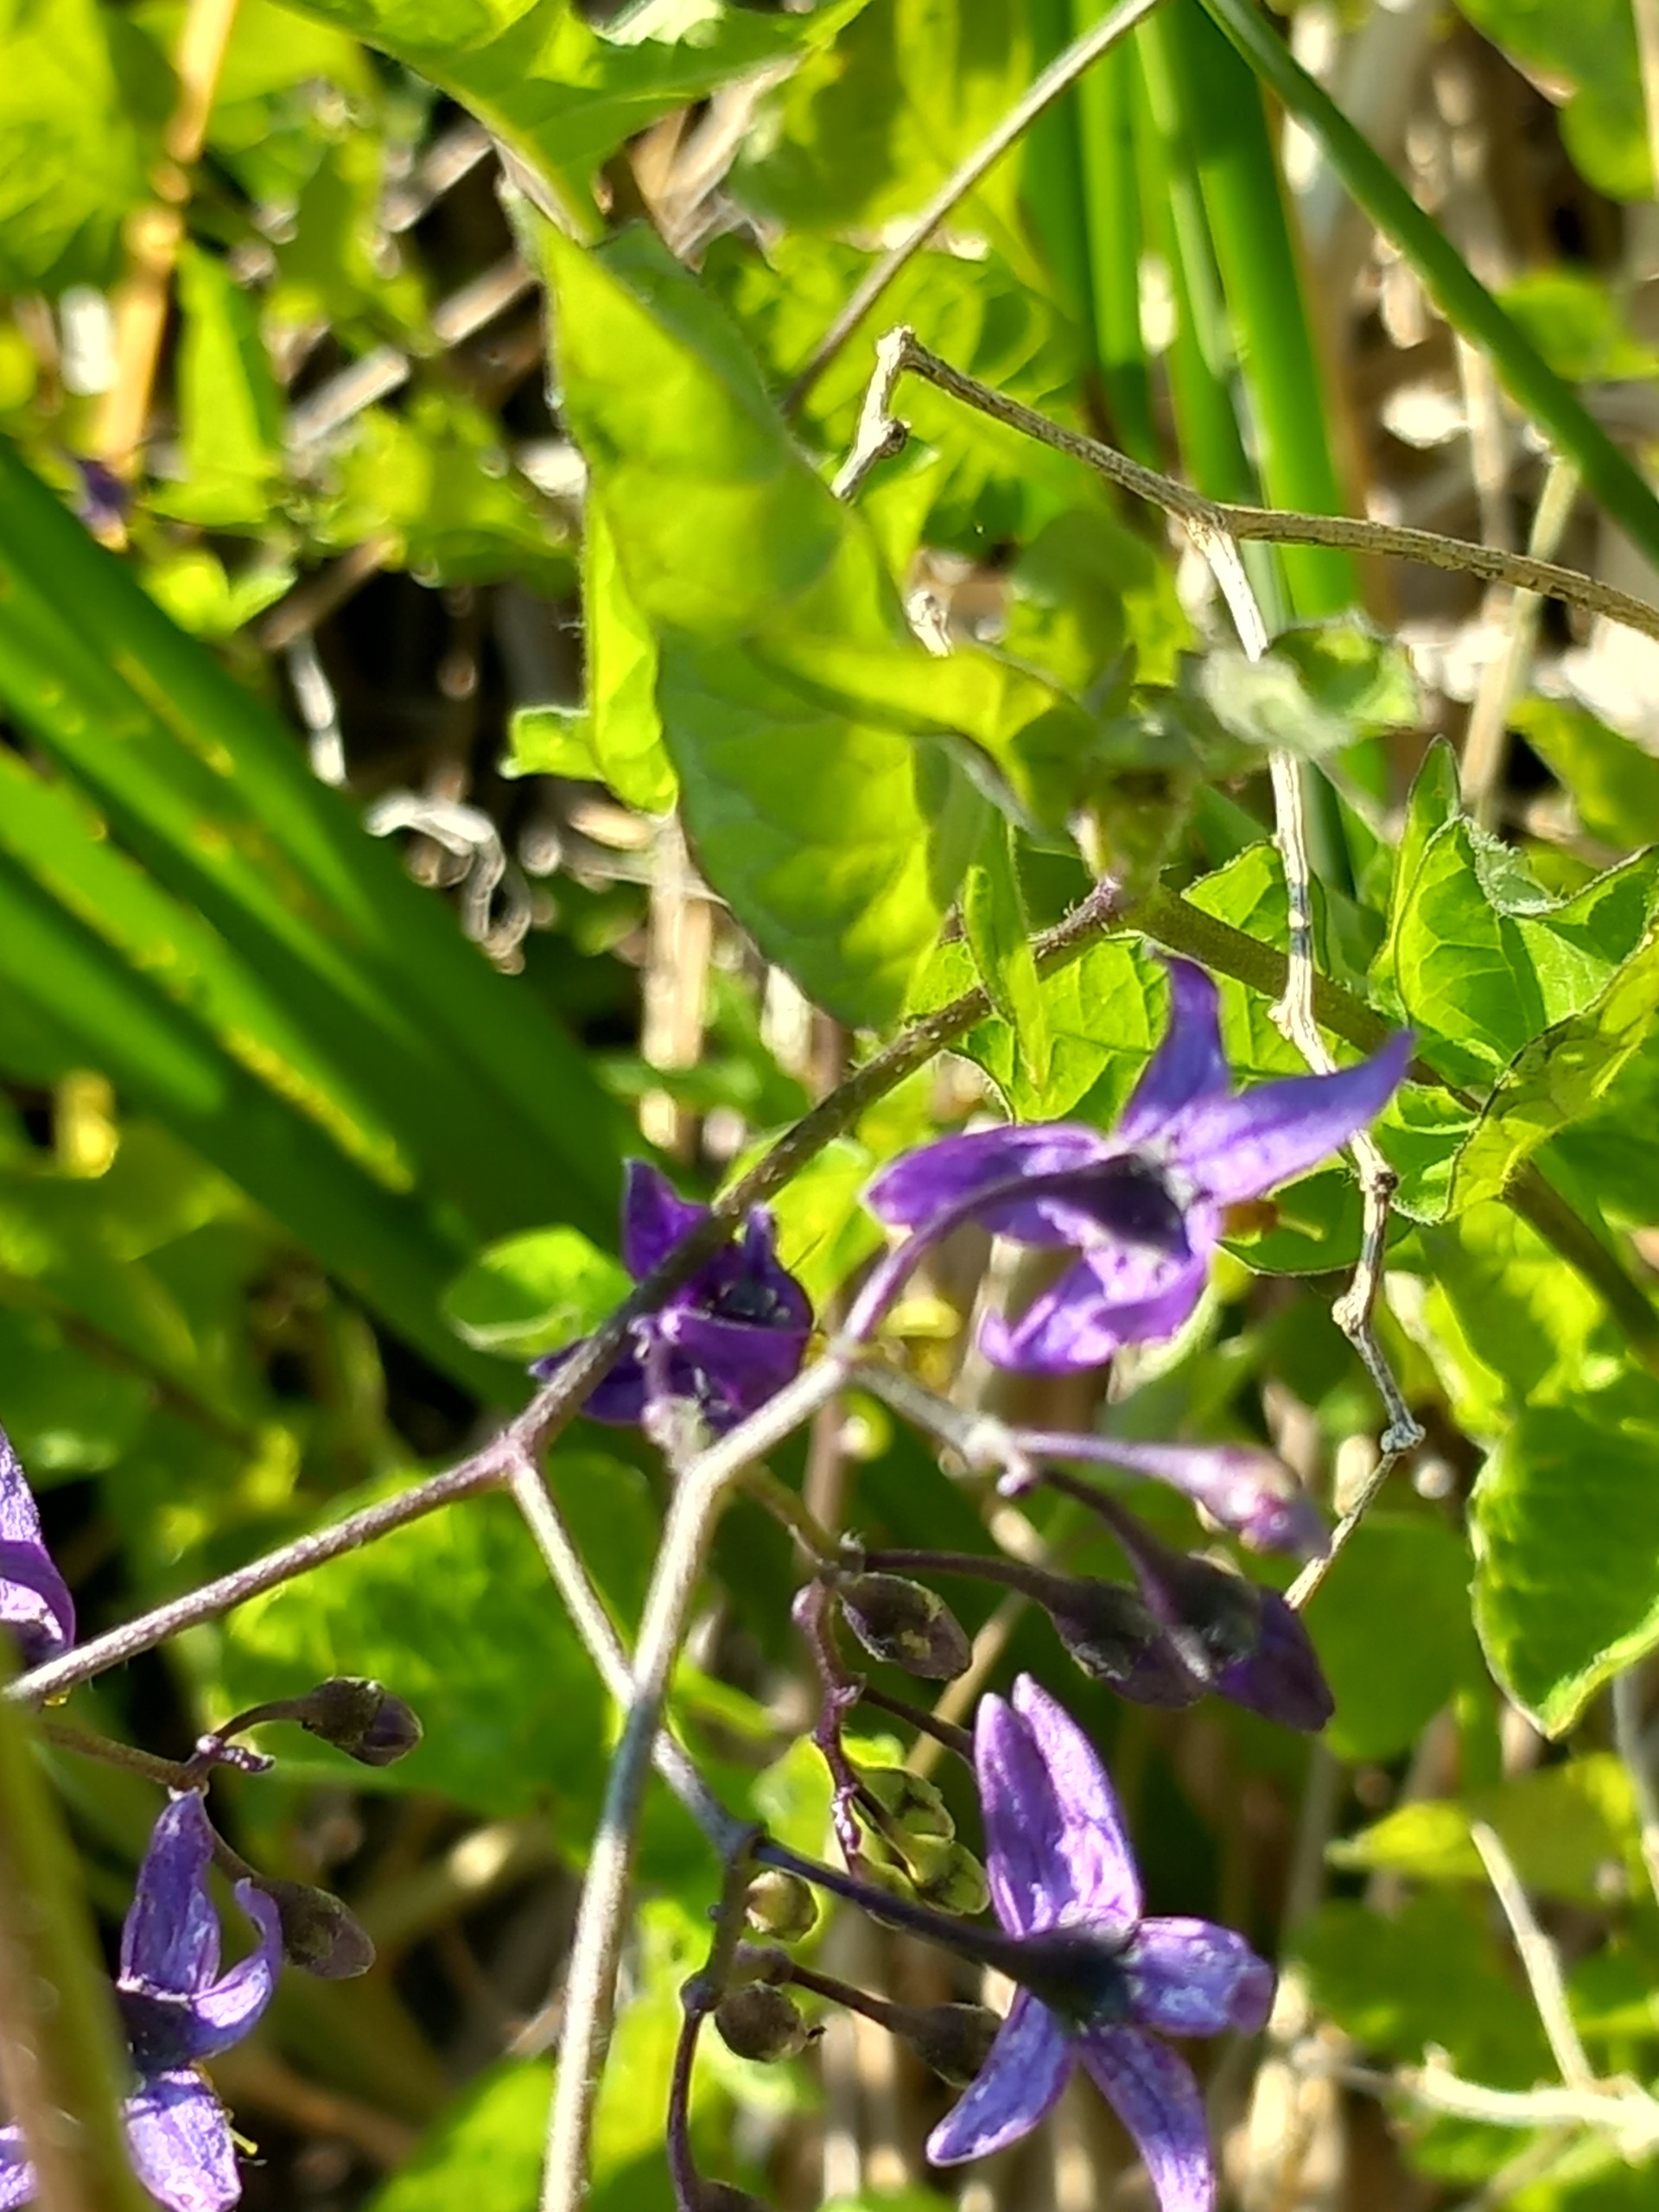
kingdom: Plantae
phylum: Tracheophyta
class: Magnoliopsida
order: Solanales
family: Solanaceae
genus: Solanum
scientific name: Solanum dulcamara
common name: Bittersød natskygge
